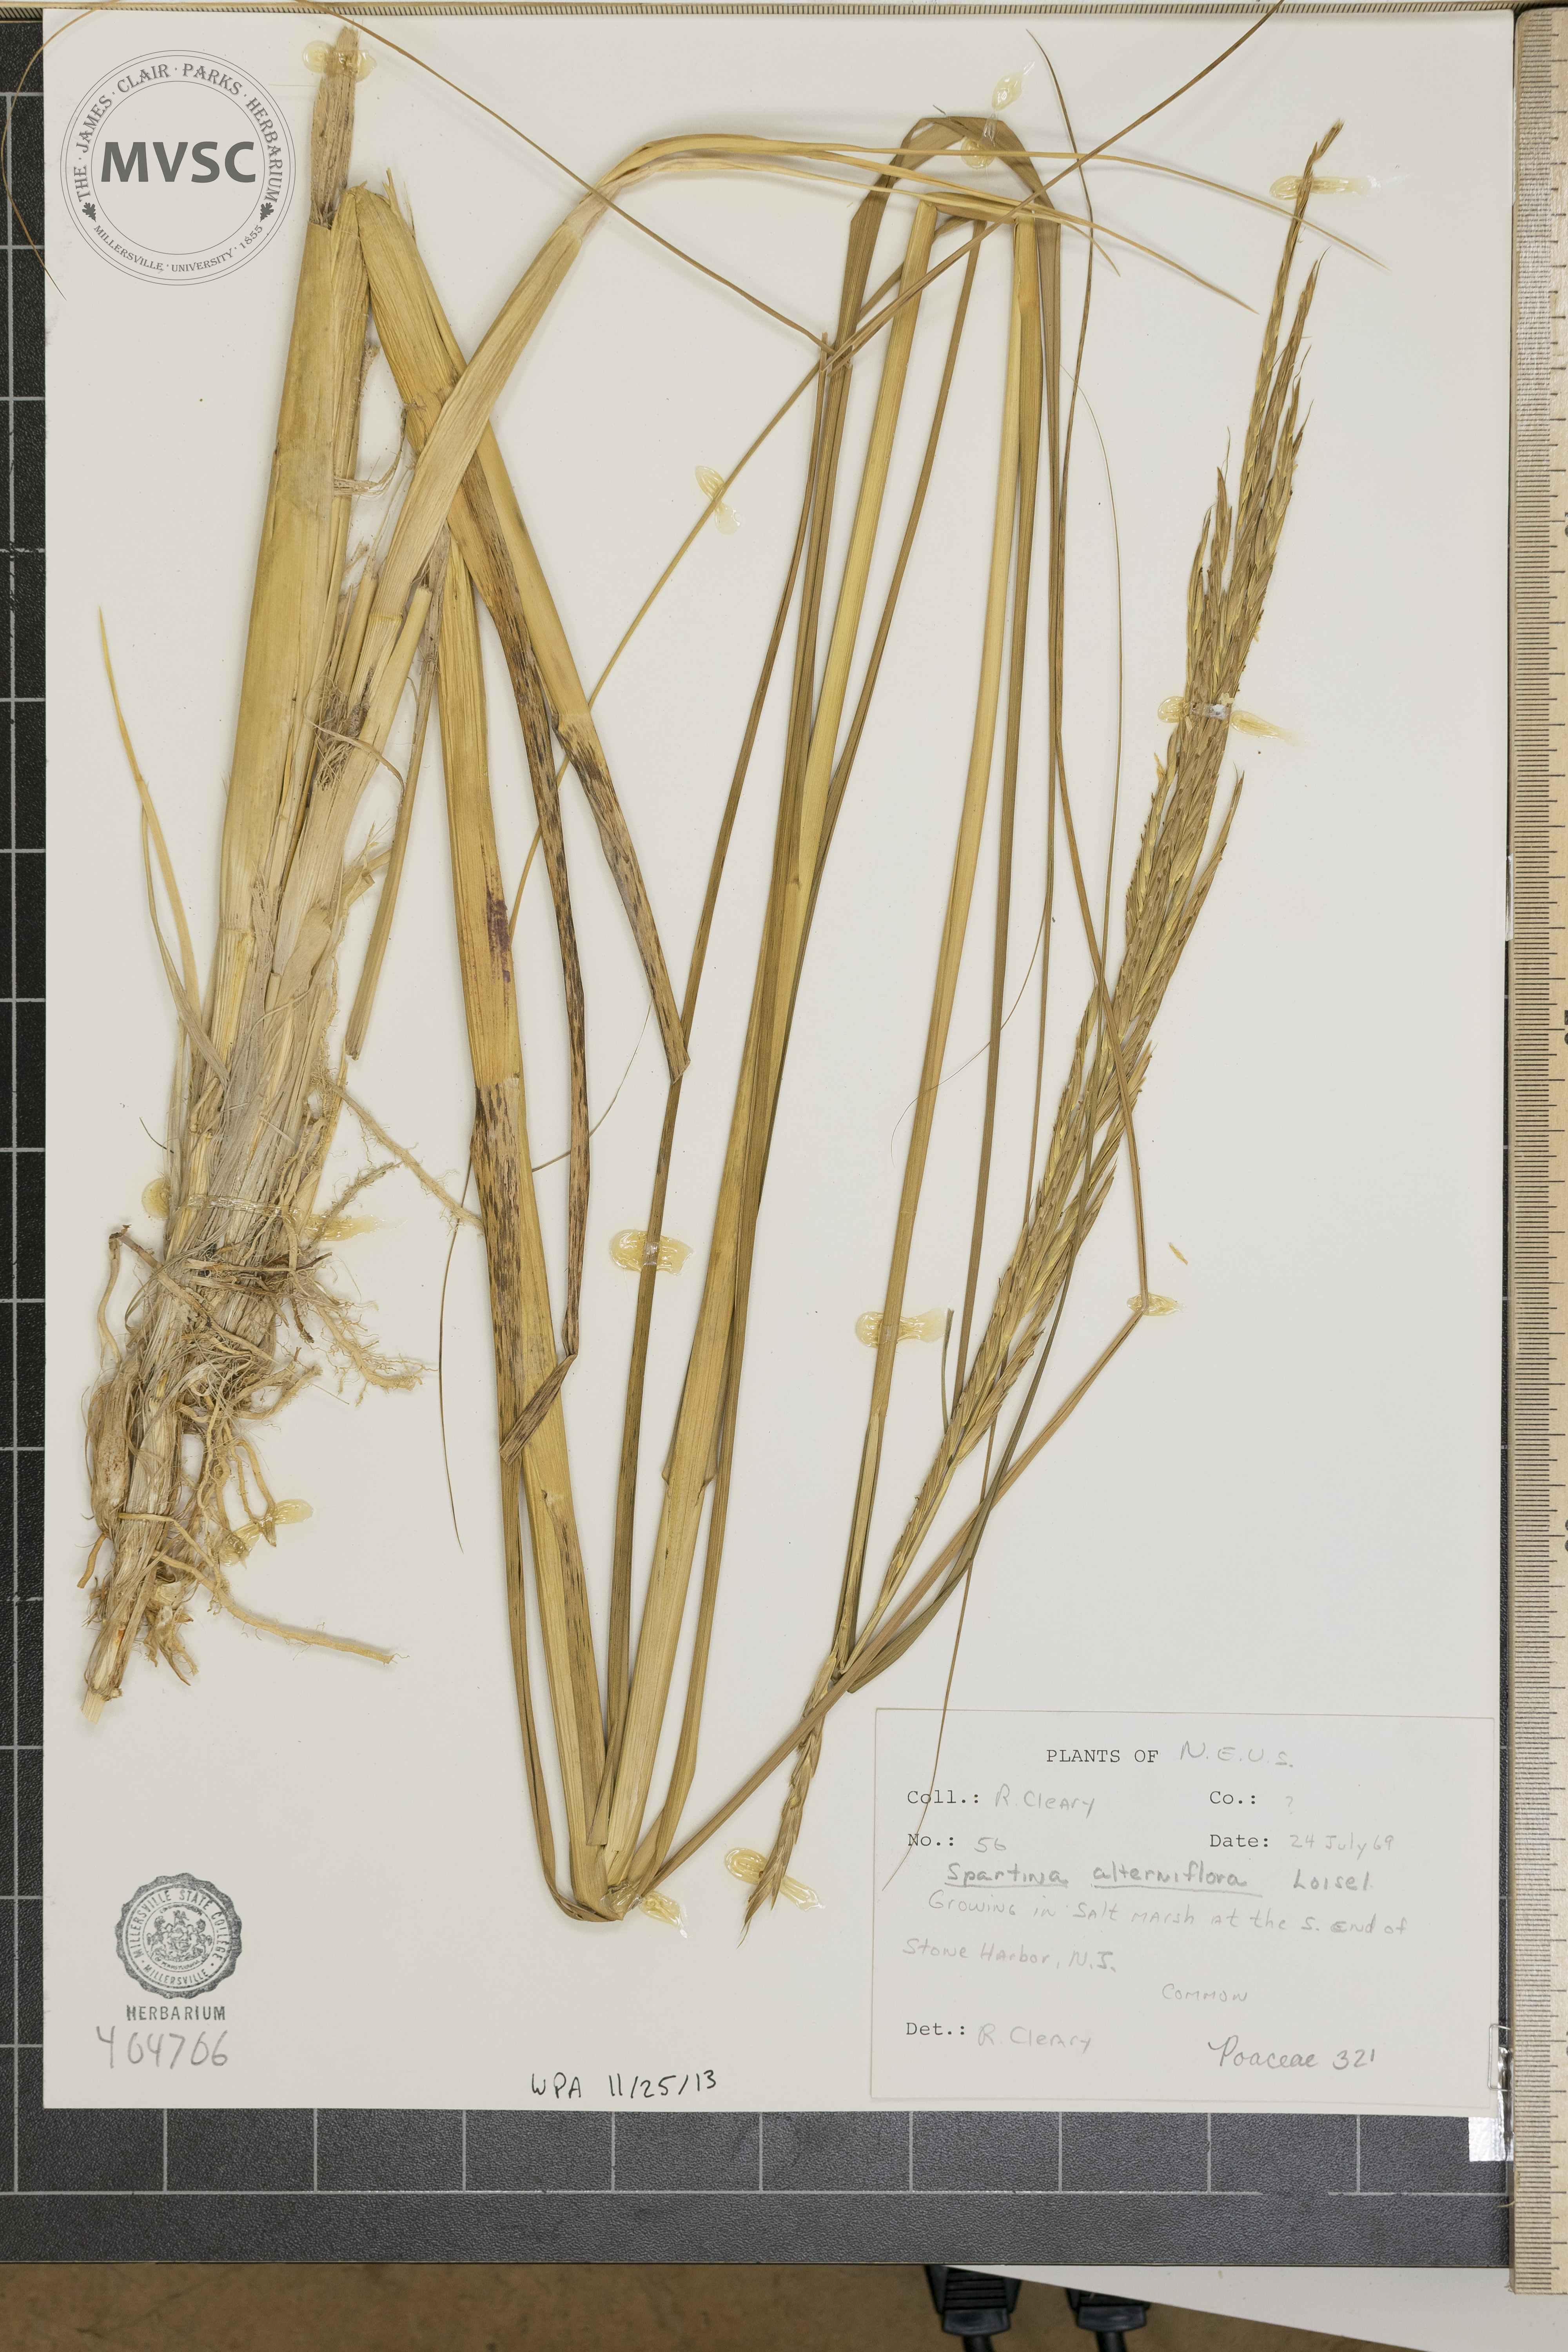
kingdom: Plantae
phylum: Tracheophyta
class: Liliopsida
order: Poales
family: Poaceae
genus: Sporobolus
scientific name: Sporobolus alterniflorus
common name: Atlantic cordgrass
